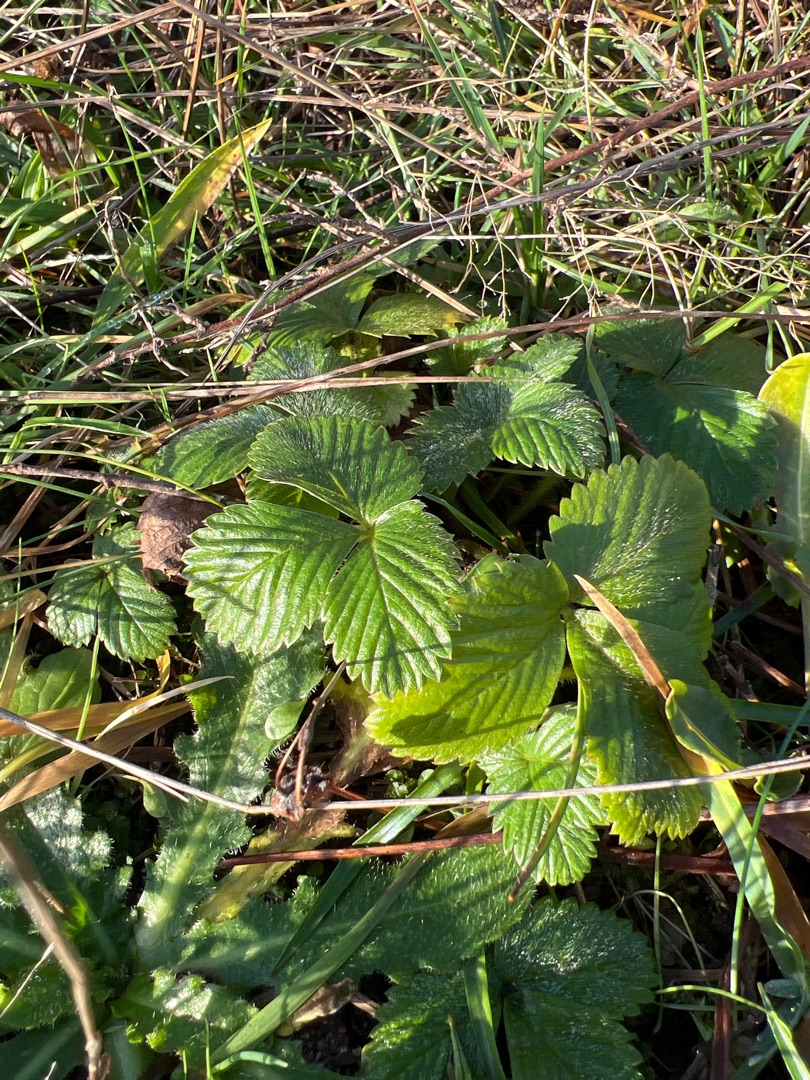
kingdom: Plantae
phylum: Tracheophyta
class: Magnoliopsida
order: Rosales
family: Rosaceae
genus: Fragaria
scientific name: Fragaria vesca
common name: Skov-jordbær
